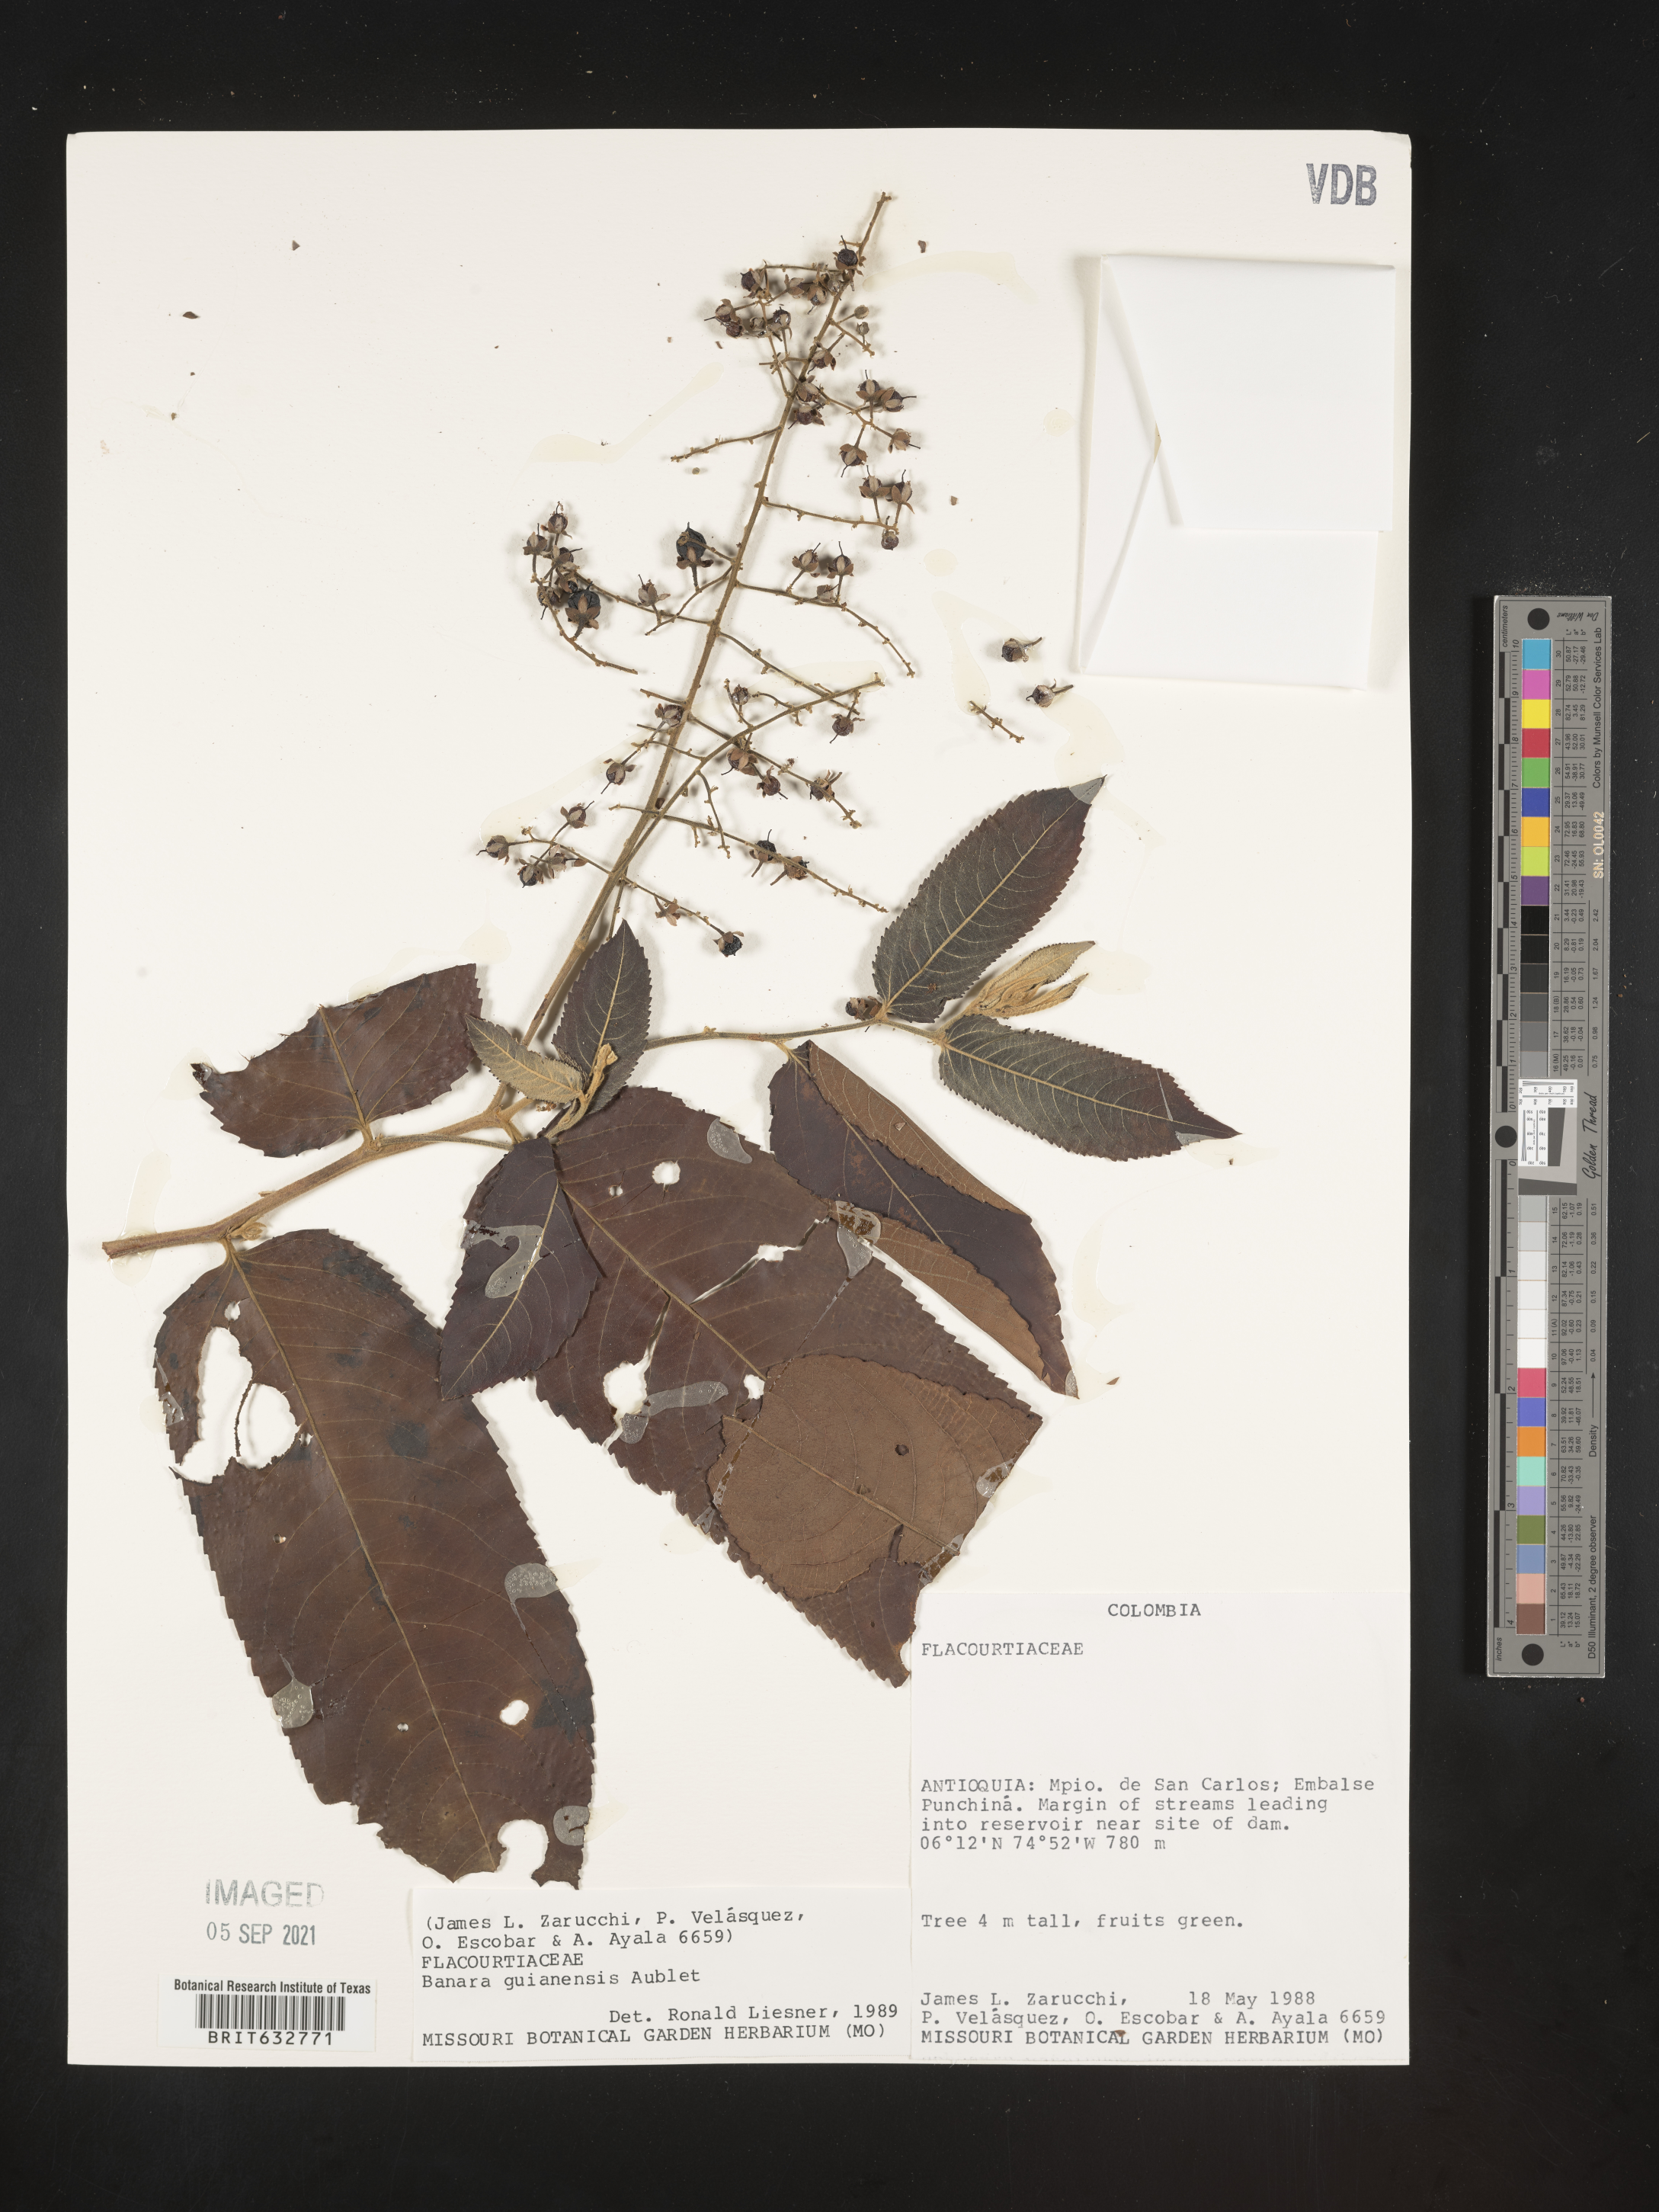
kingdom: Plantae
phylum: Tracheophyta
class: Magnoliopsida
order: Malpighiales
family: Salicaceae
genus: Banara
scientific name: Banara
